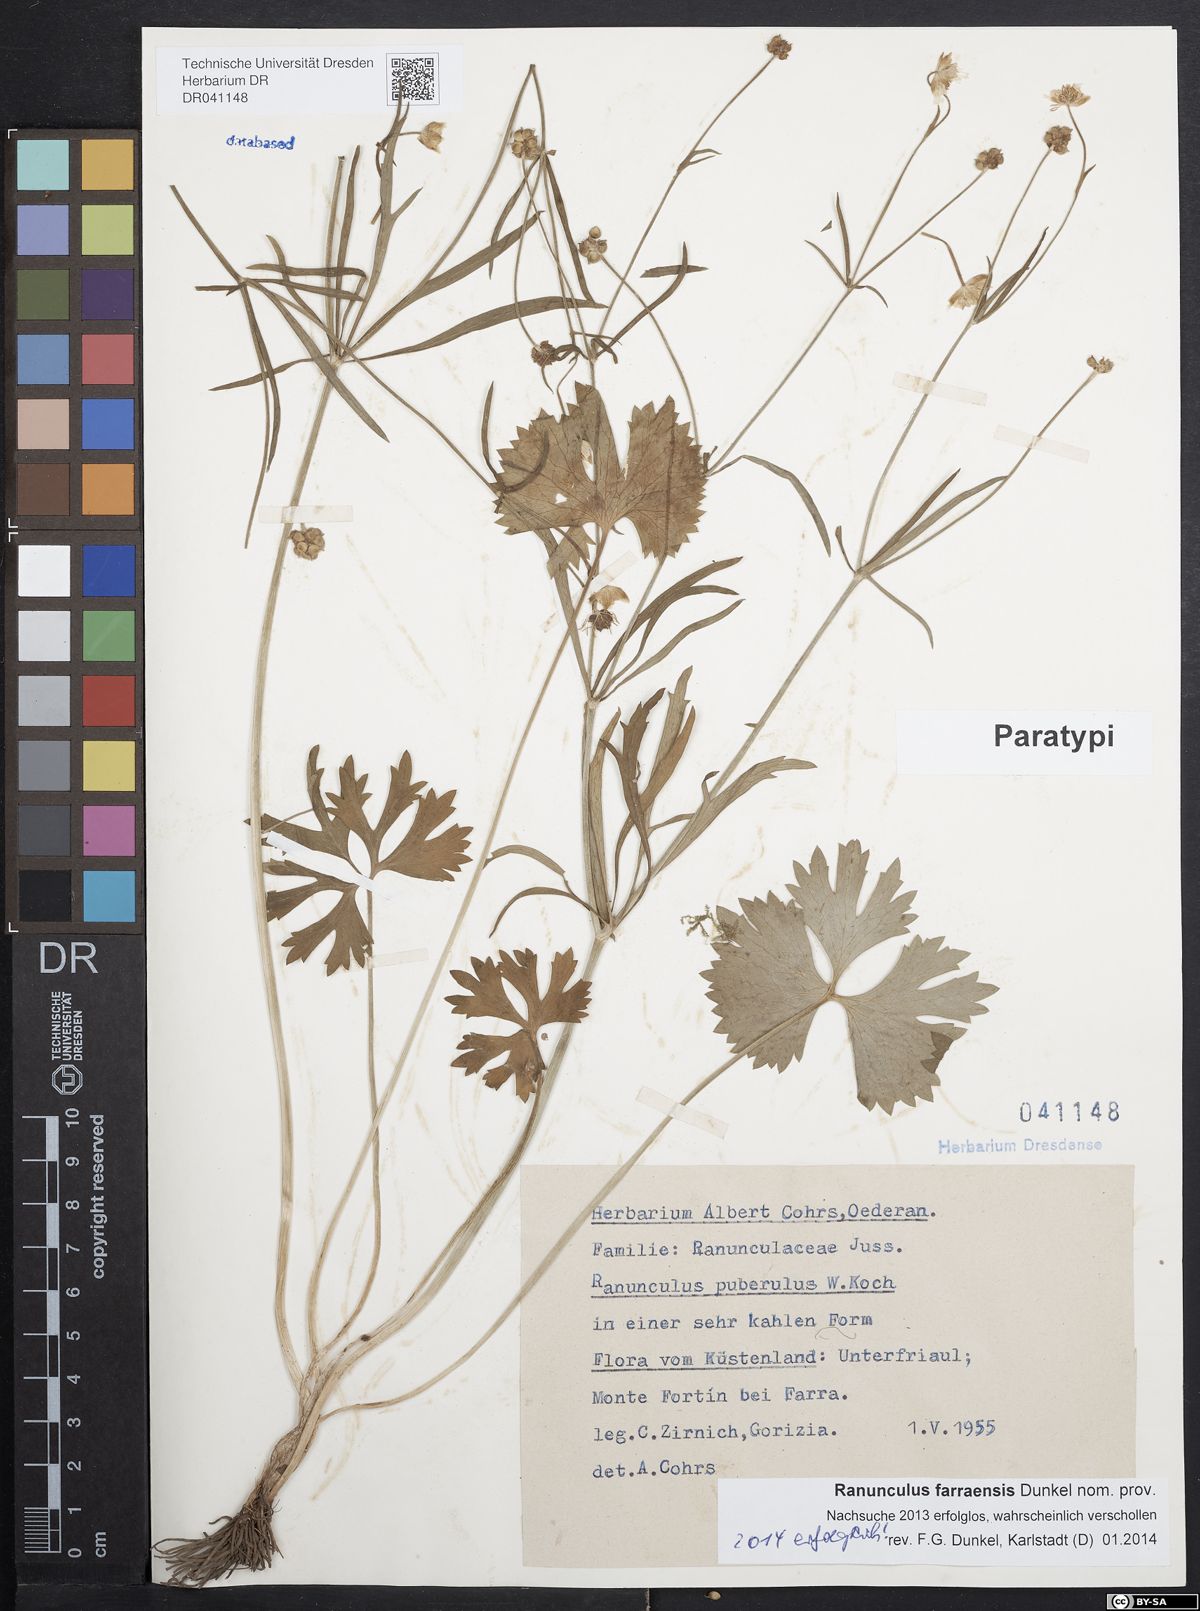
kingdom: Plantae
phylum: Tracheophyta
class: Magnoliopsida
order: Ranunculales
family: Ranunculaceae
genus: Ranunculus
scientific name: Ranunculus farraensis
